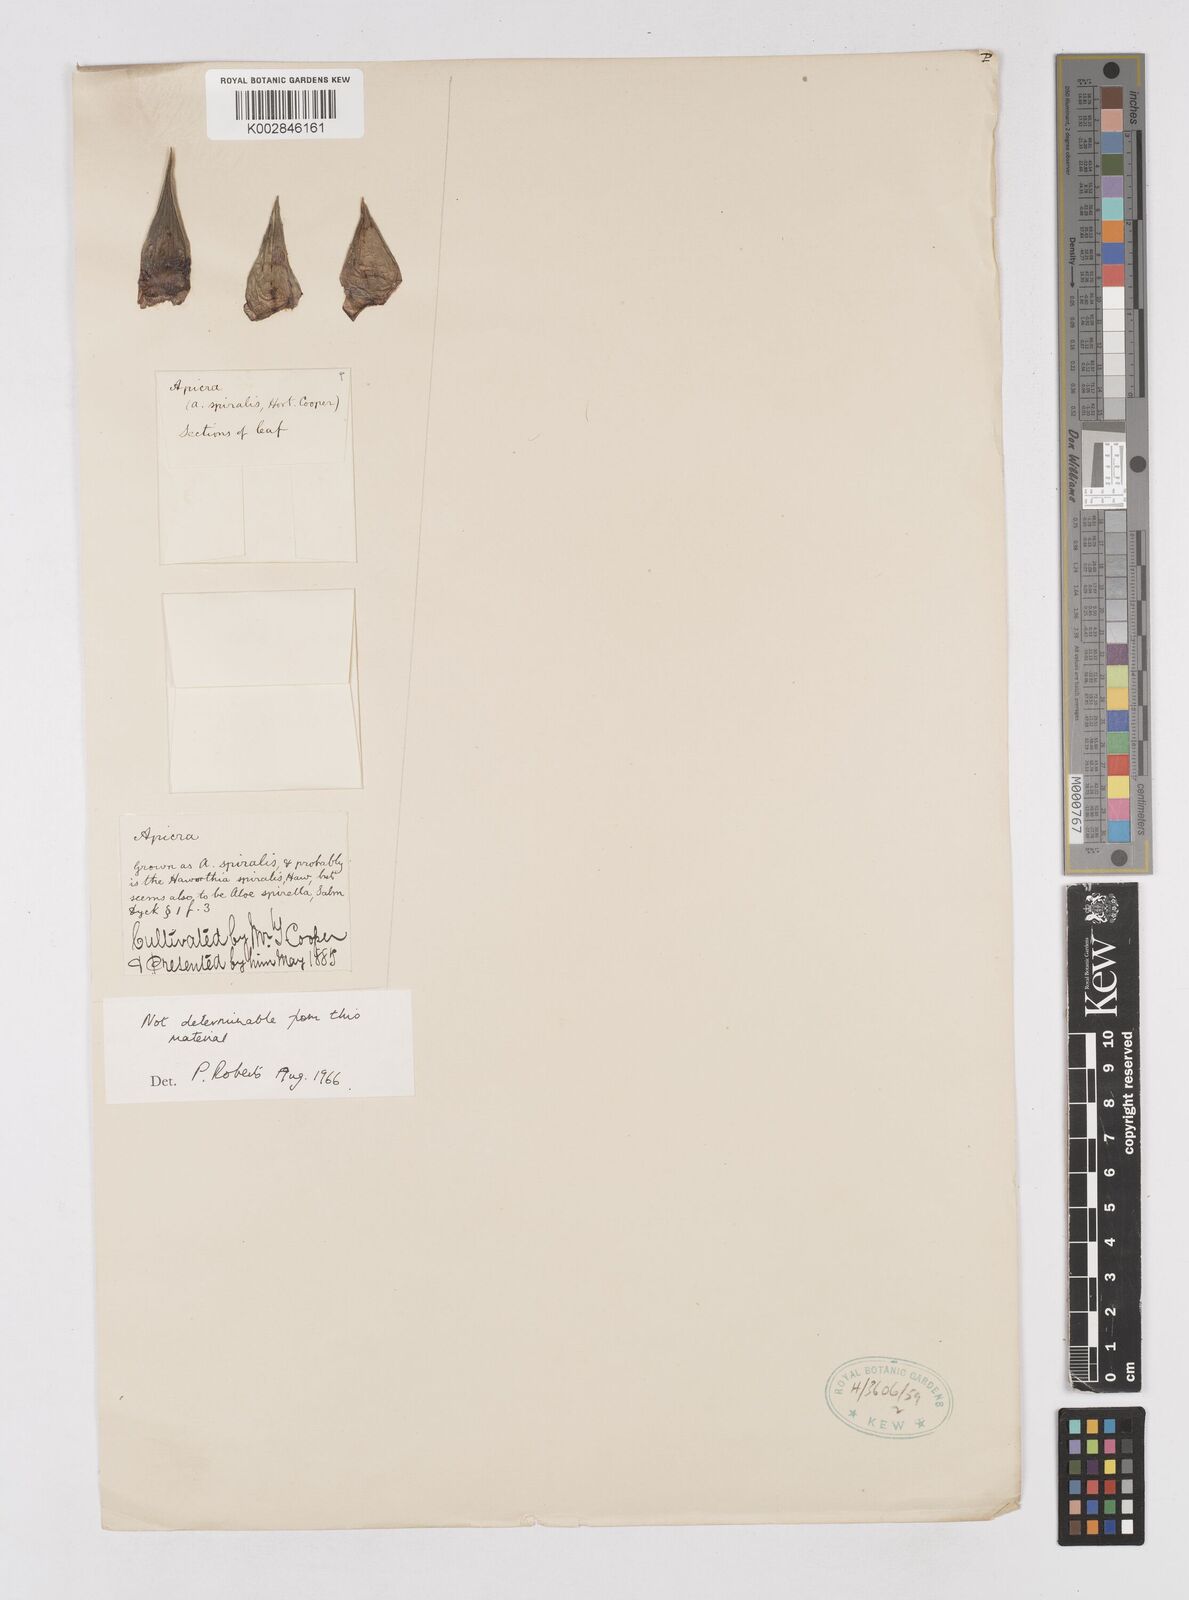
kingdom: Plantae
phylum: Tracheophyta
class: Liliopsida
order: Asparagales
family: Asphodelaceae
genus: Astroloba
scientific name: Astroloba spiralis
